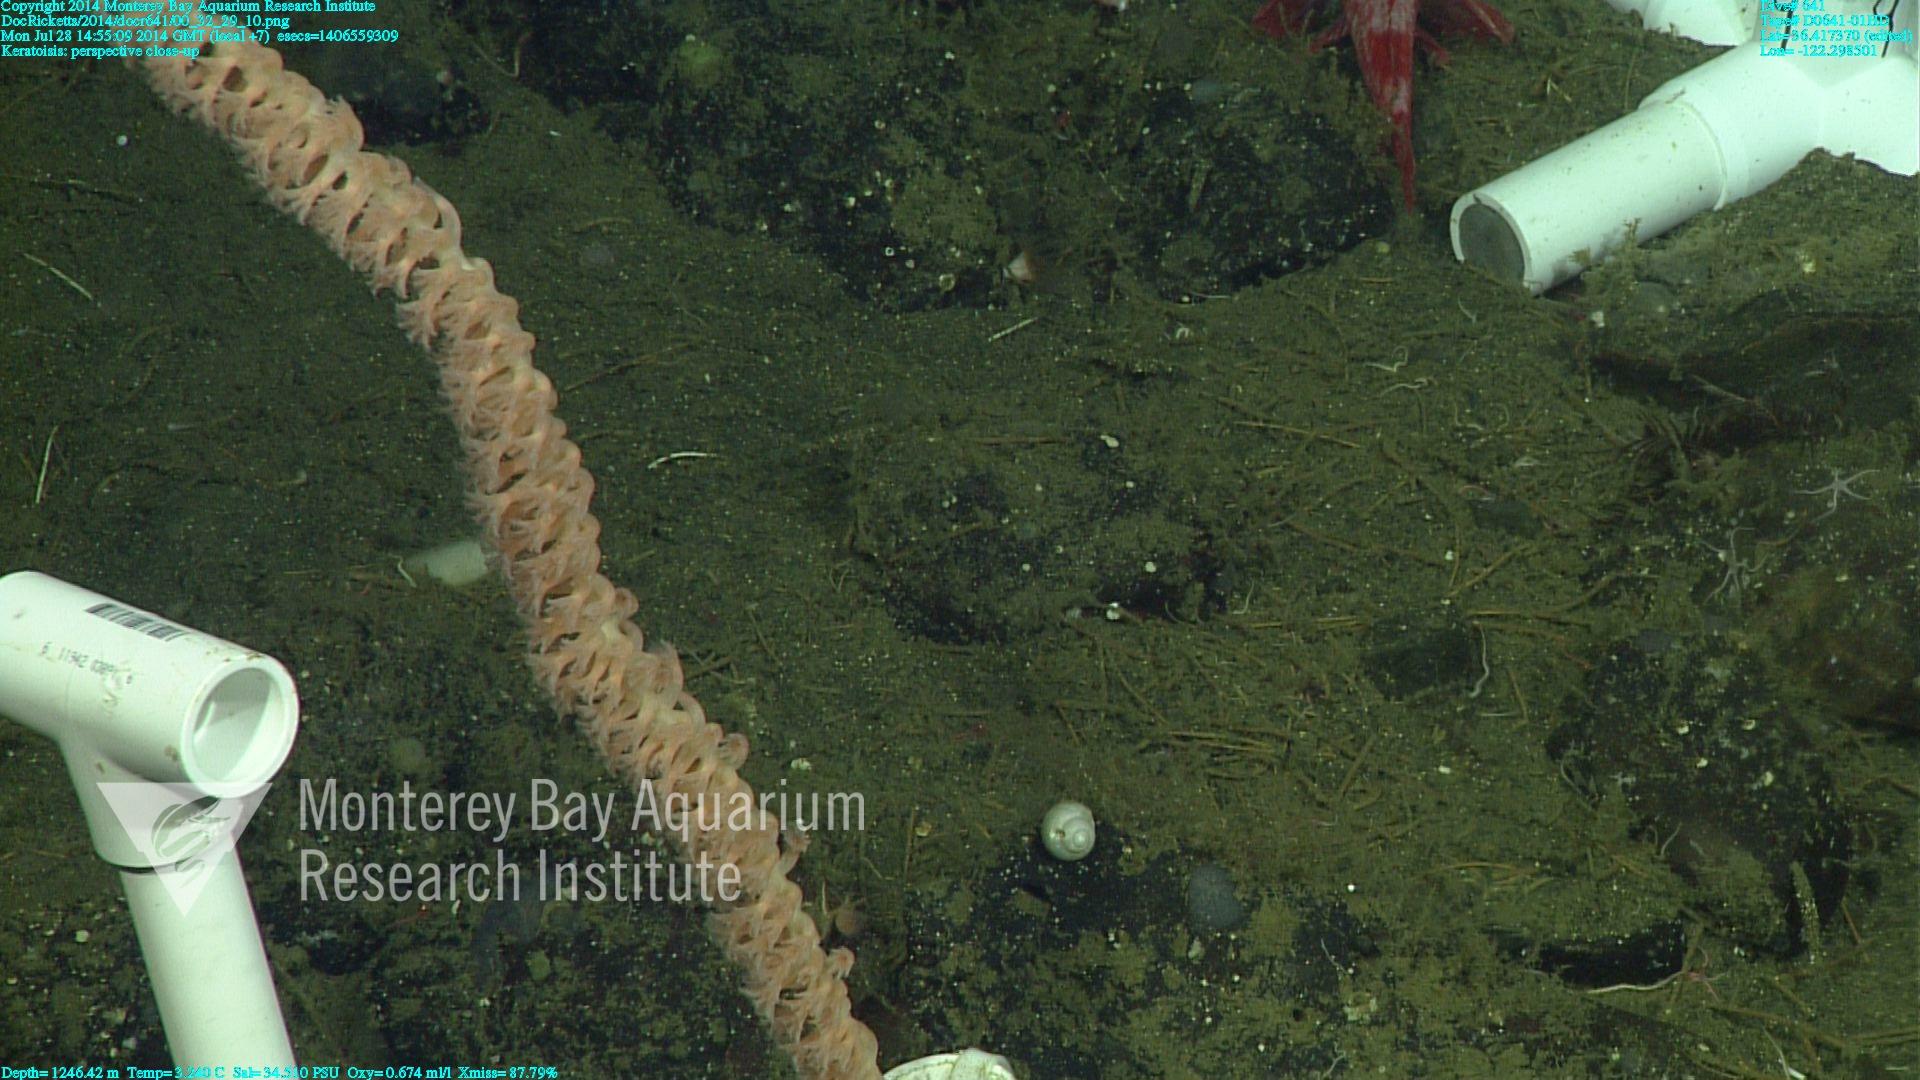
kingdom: Animalia
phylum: Cnidaria
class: Anthozoa
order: Scleralcyonacea
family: Keratoisididae
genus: Keratoisis
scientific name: Keratoisis
